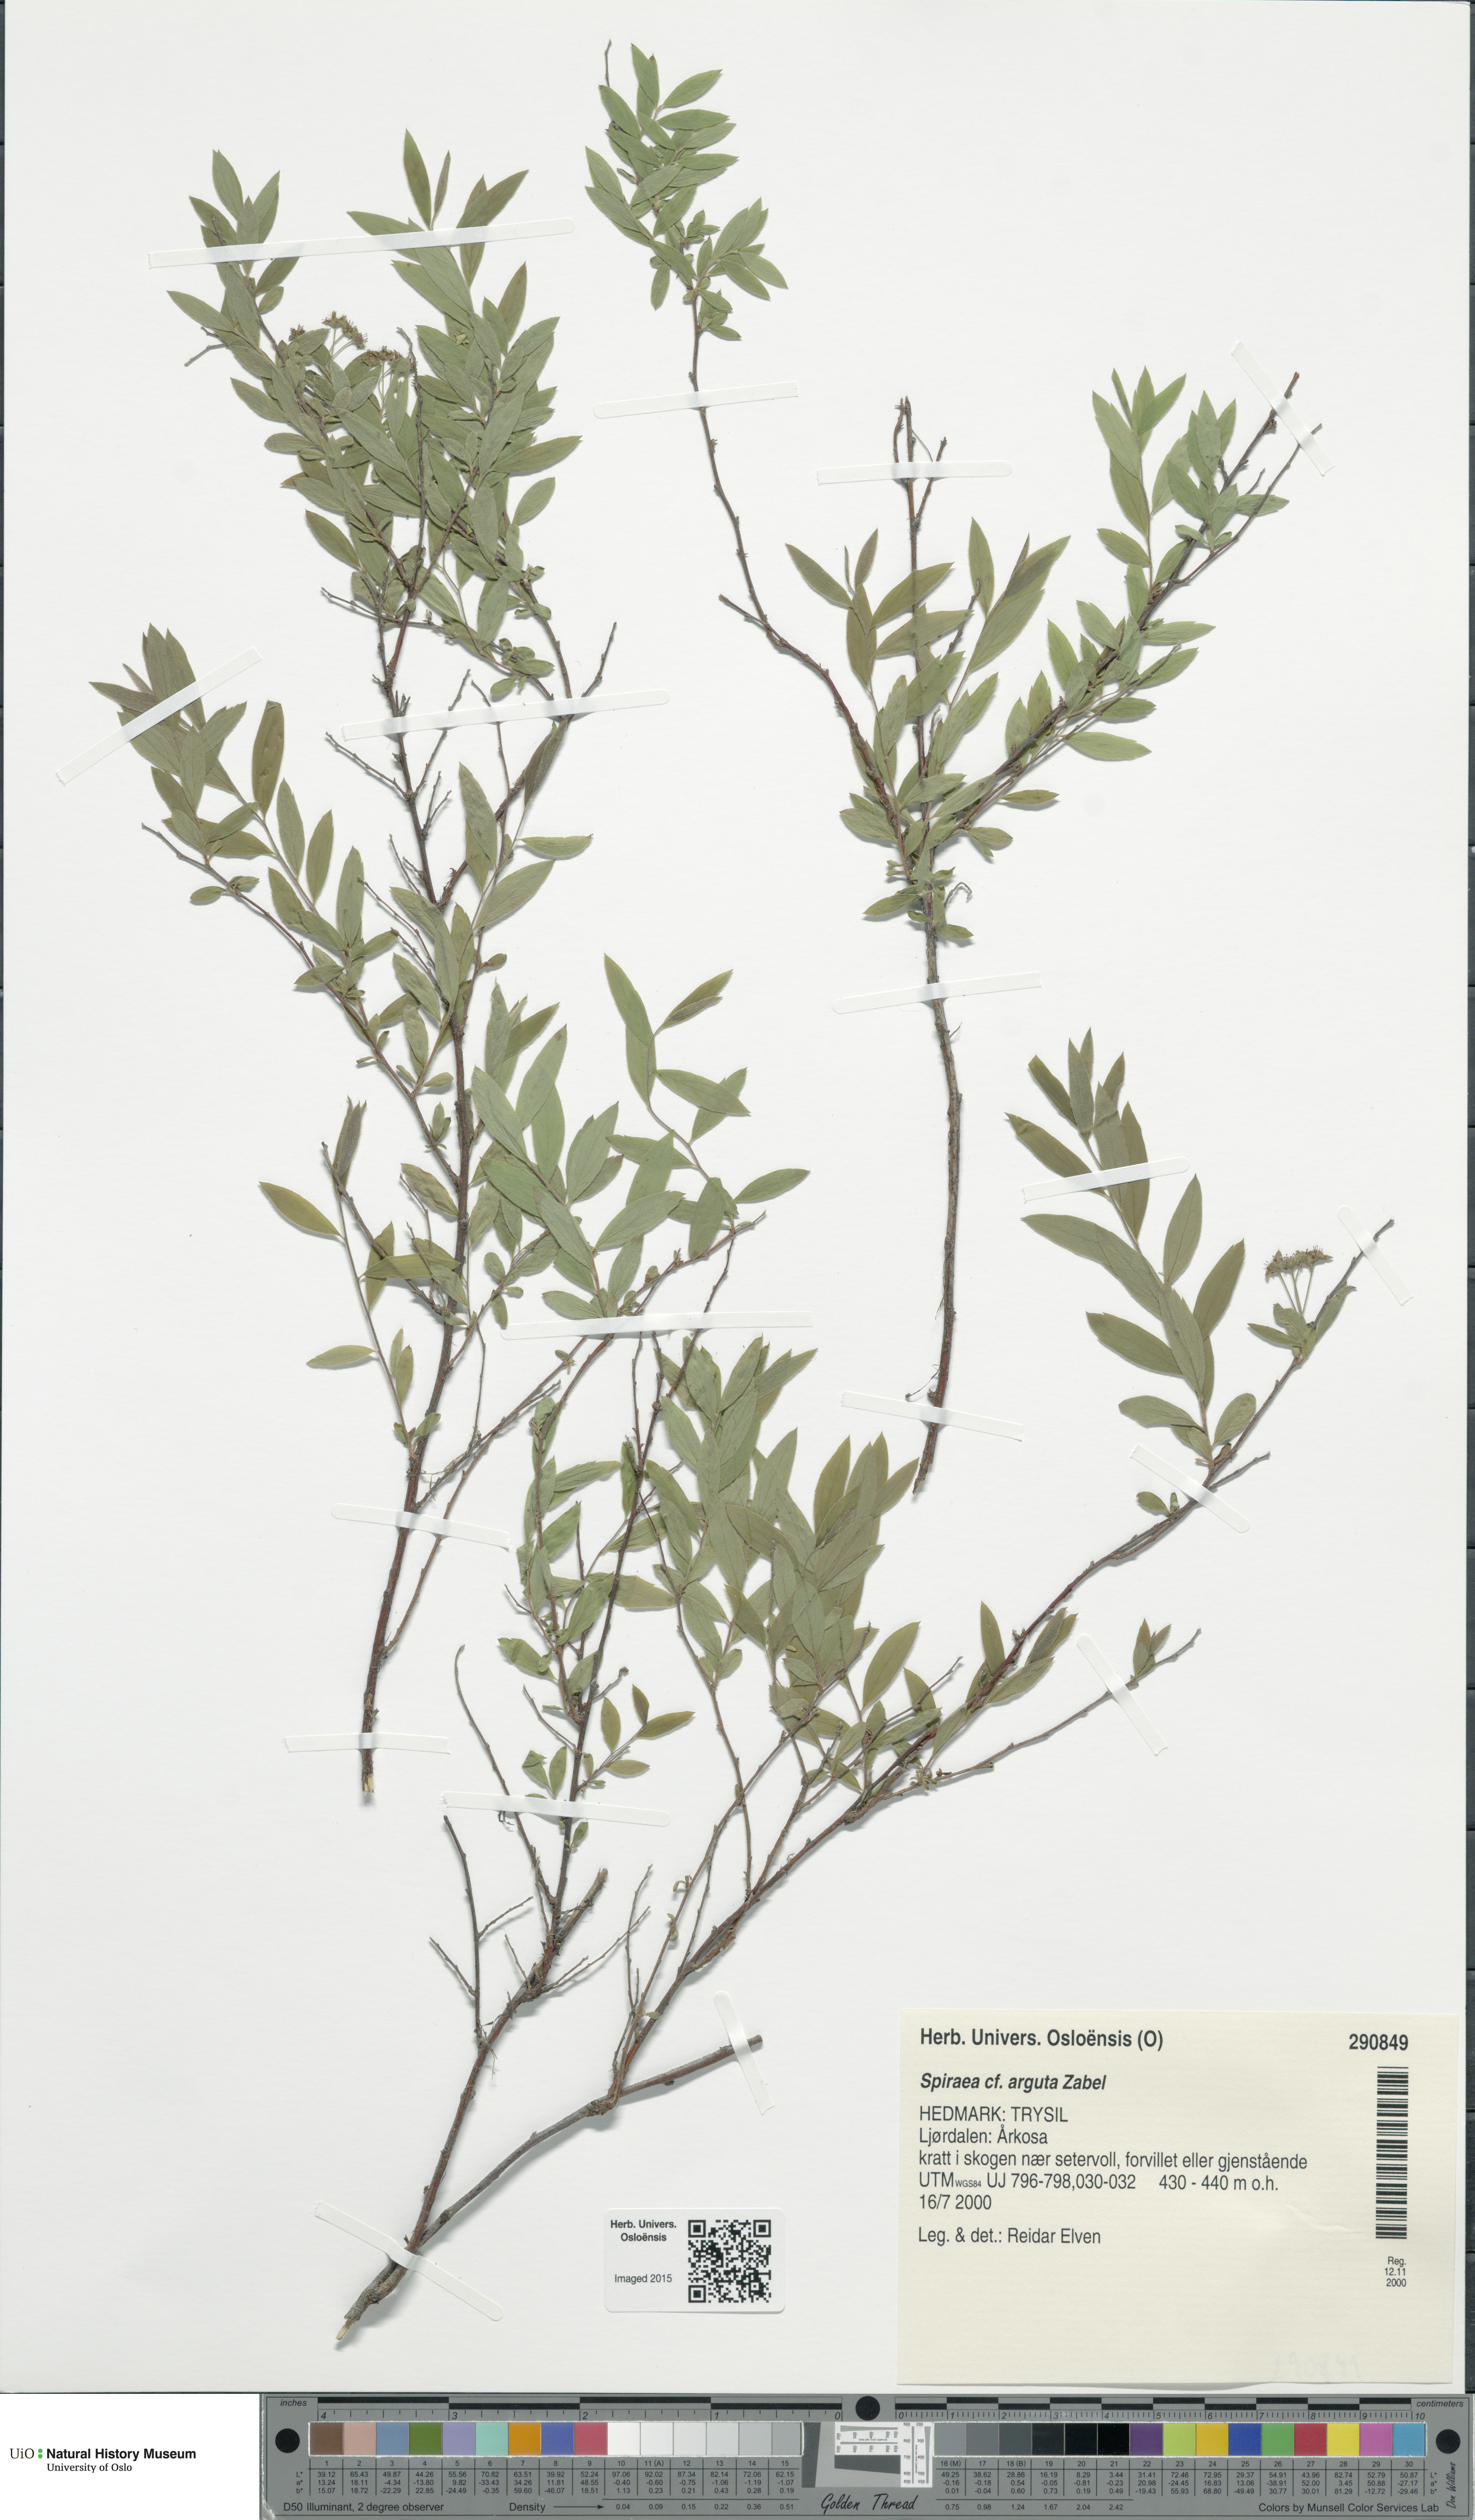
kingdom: Plantae
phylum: Tracheophyta
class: Magnoliopsida
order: Rosales
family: Rosaceae
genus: Spiraea
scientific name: Spiraea cinerea
